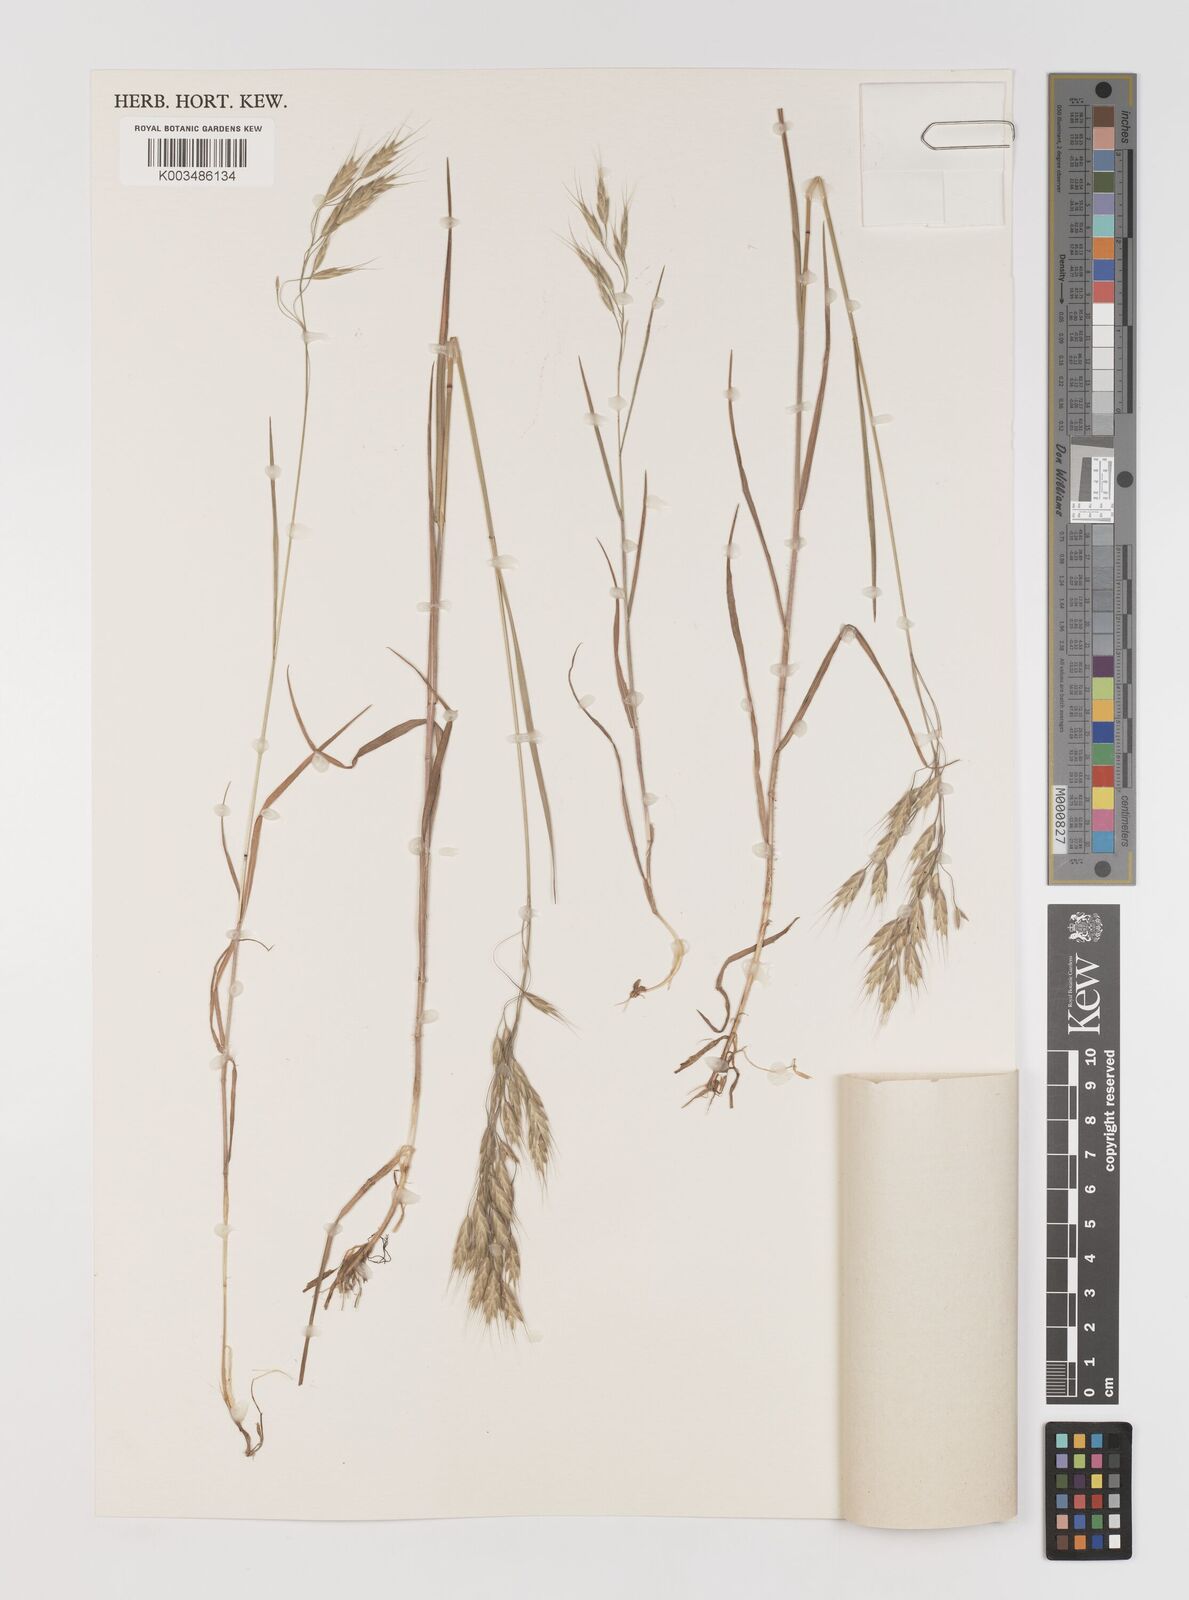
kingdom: Plantae
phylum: Tracheophyta
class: Liliopsida
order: Poales
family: Poaceae
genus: Bromus
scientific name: Bromus japonicus
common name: Japanese brome
